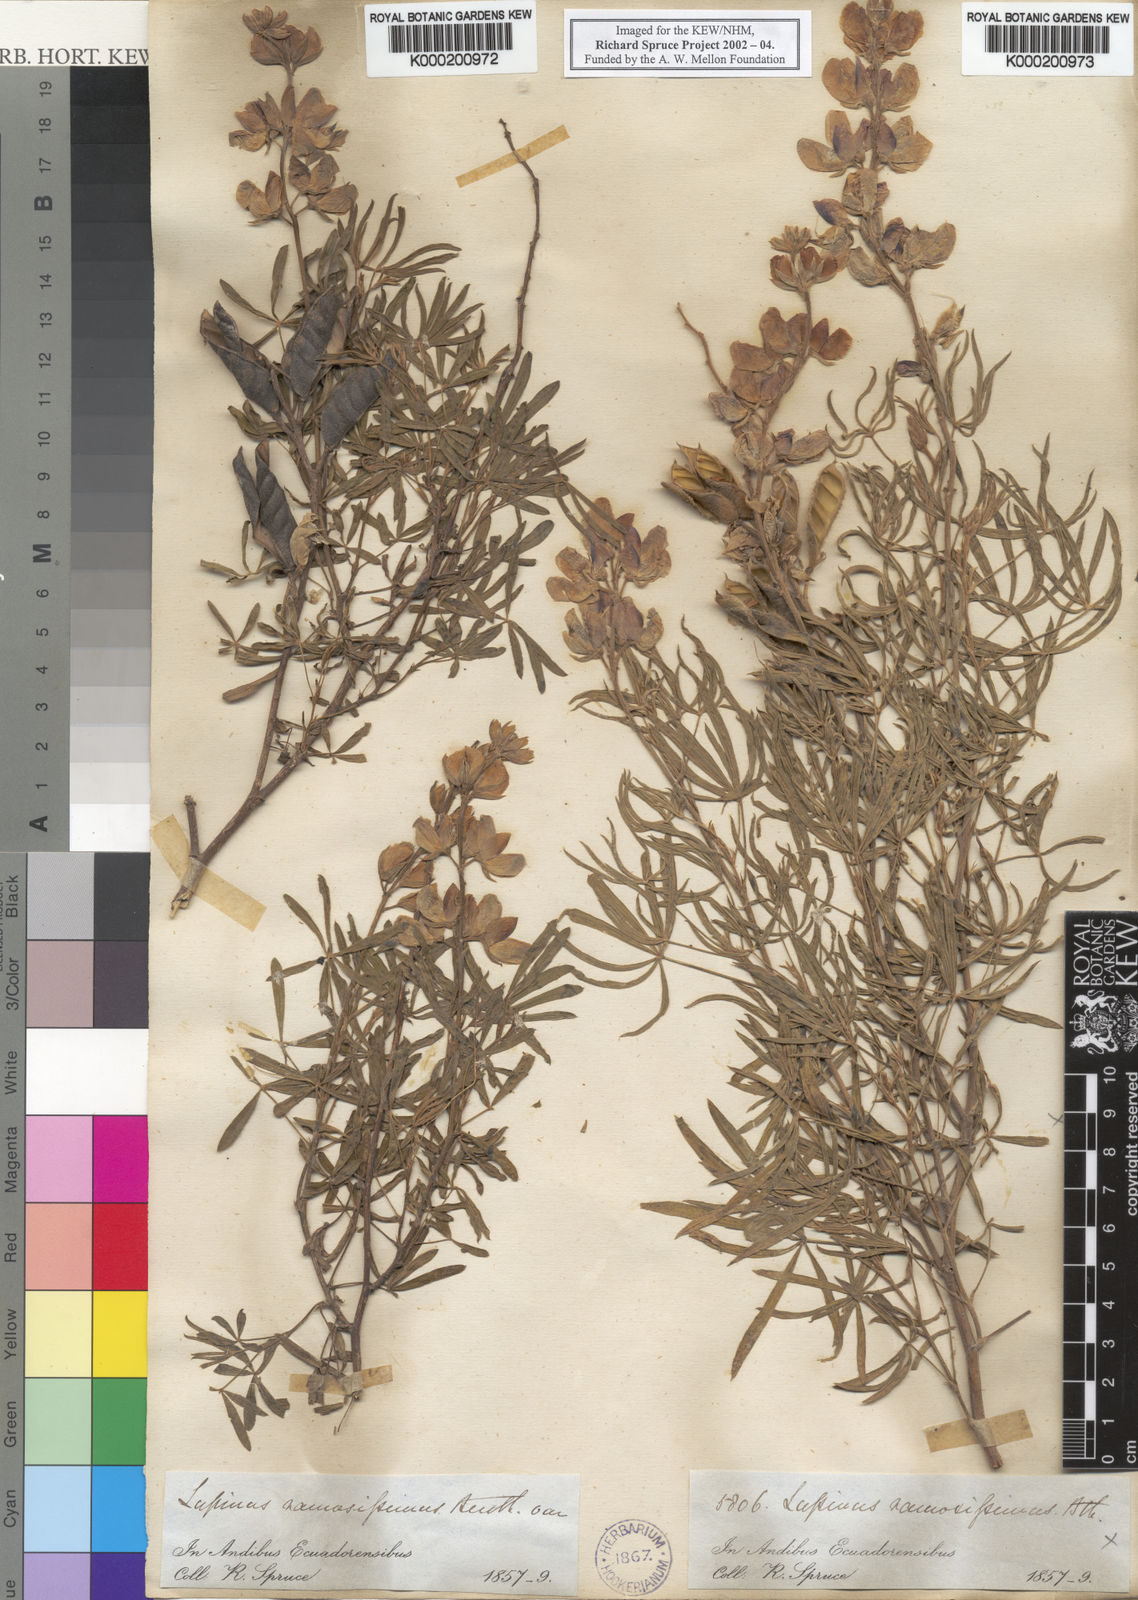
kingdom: Plantae
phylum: Tracheophyta
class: Magnoliopsida
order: Fabales
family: Fabaceae
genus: Lupinus
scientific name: Lupinus ramosissimus
